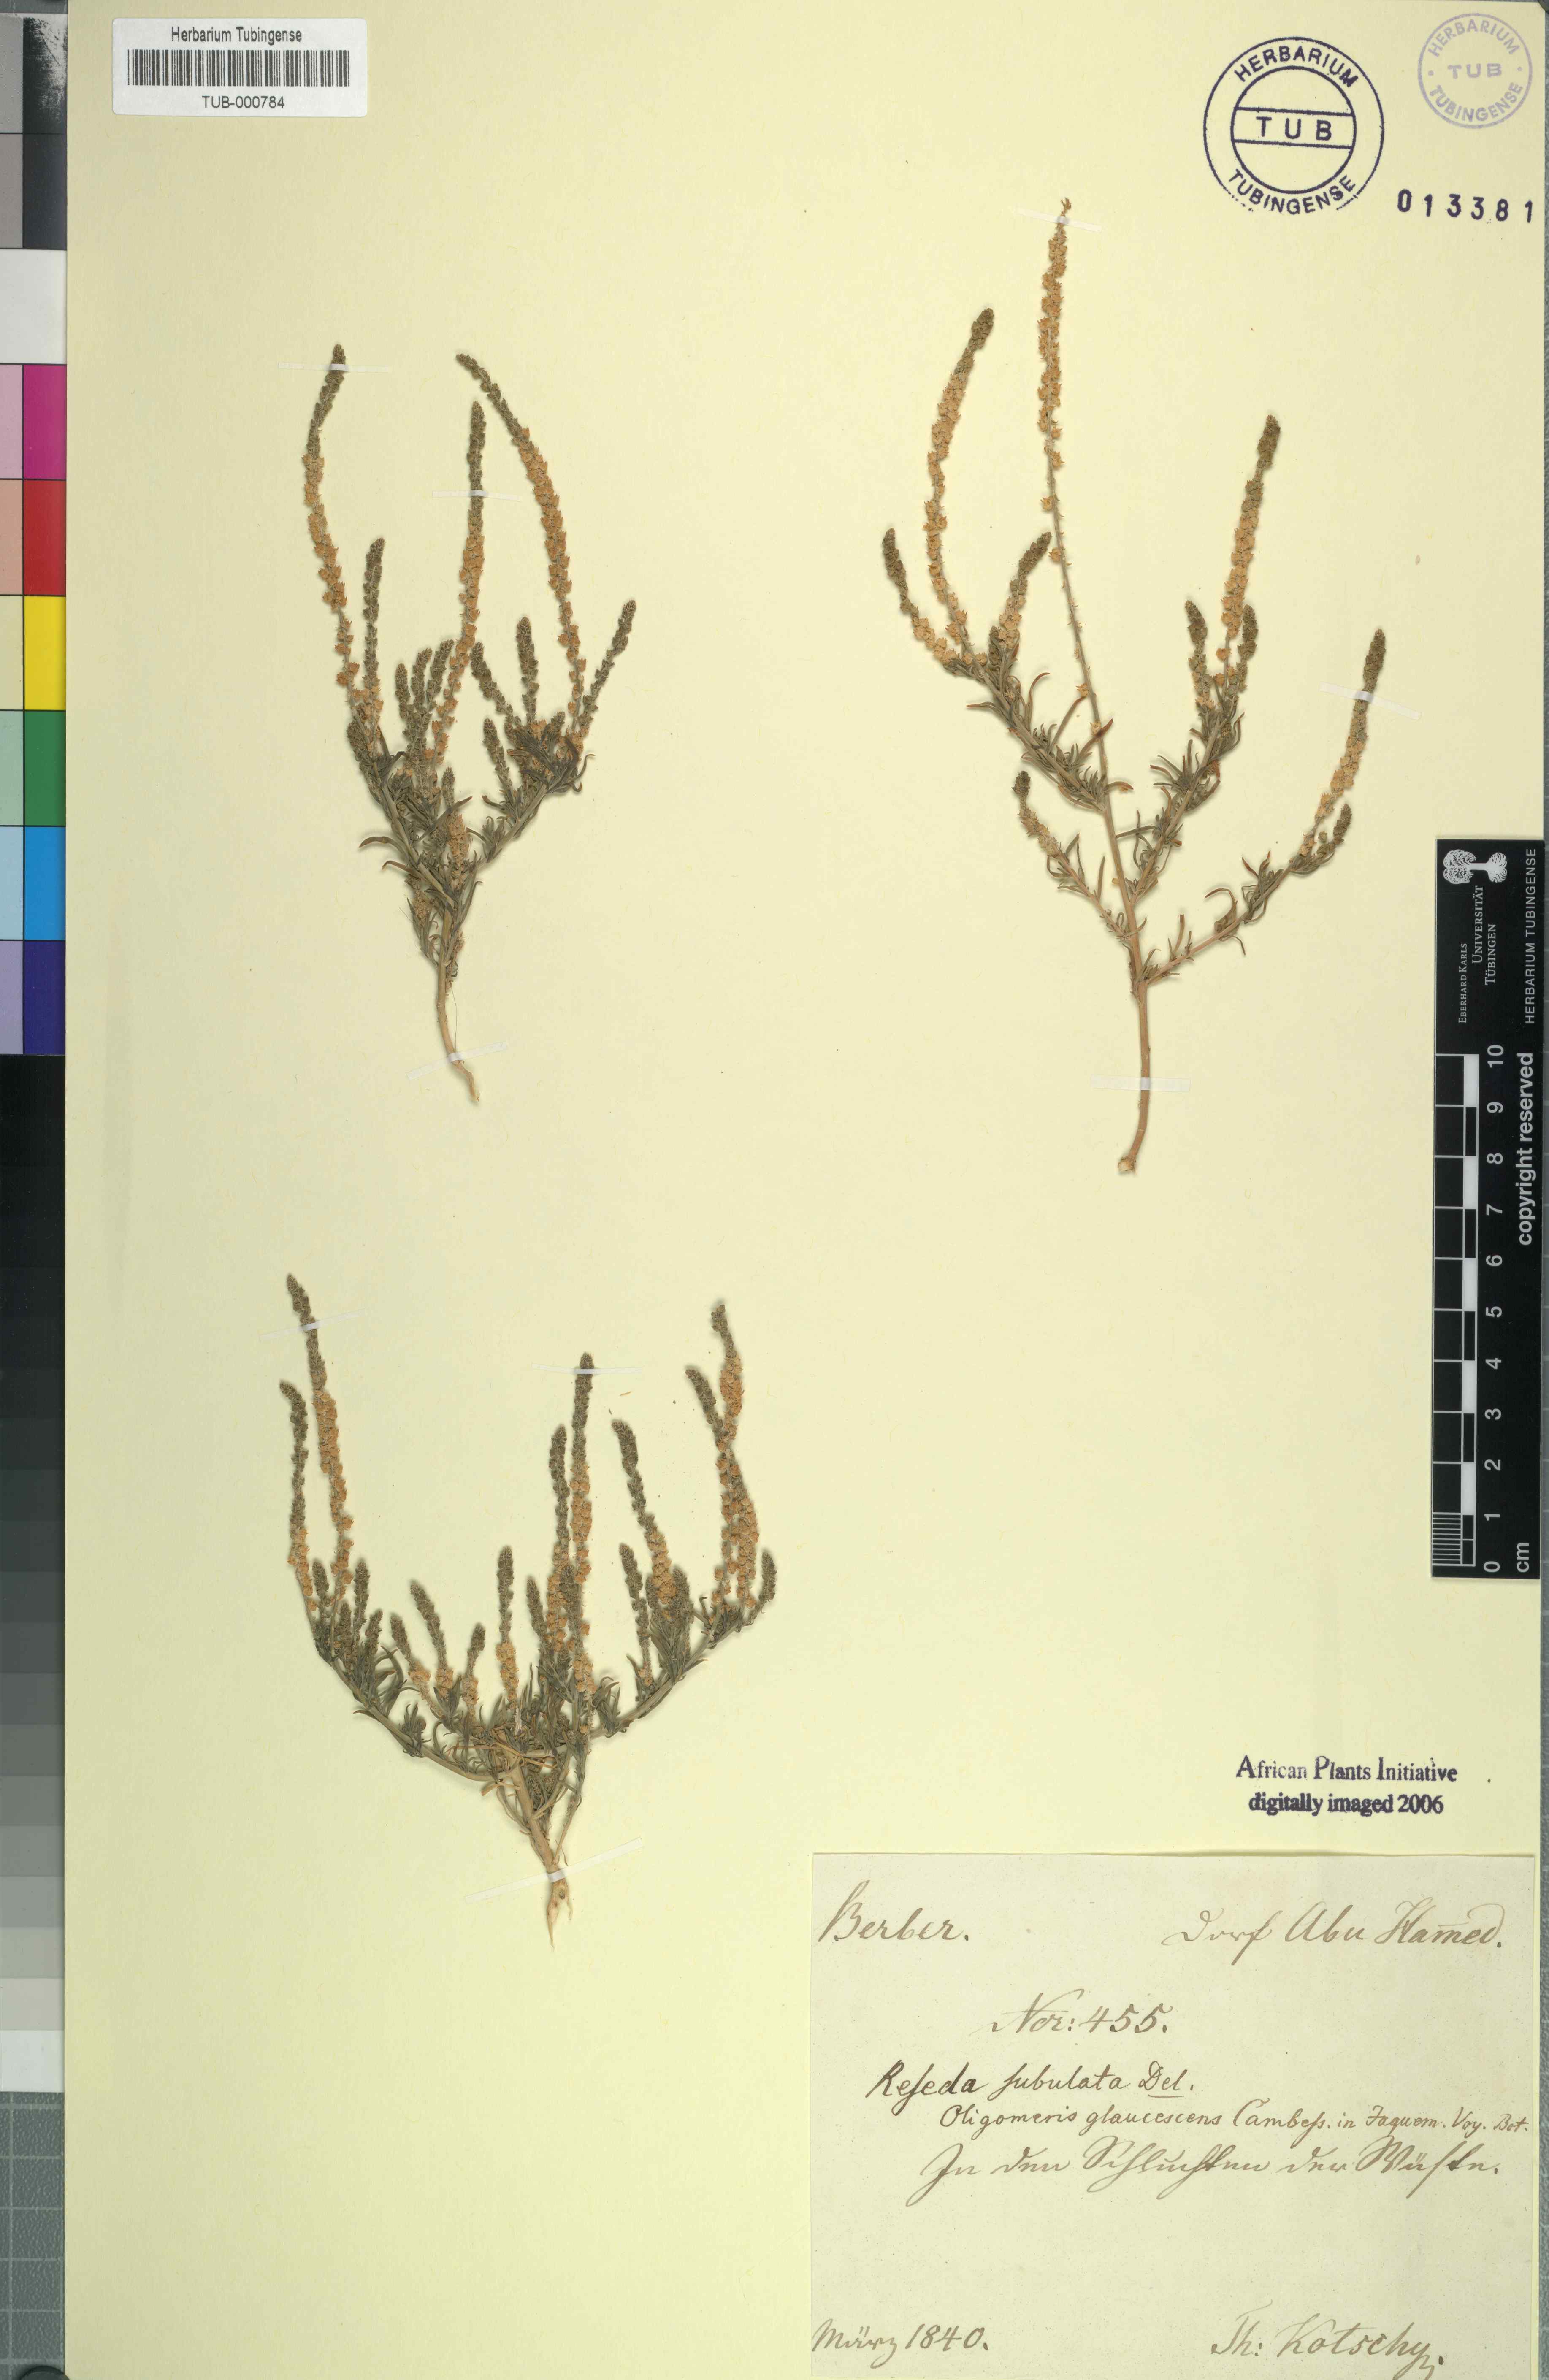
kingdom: Plantae
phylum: Tracheophyta
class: Magnoliopsida
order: Brassicales
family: Resedaceae
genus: Oligomeris
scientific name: Oligomeris linifolia
